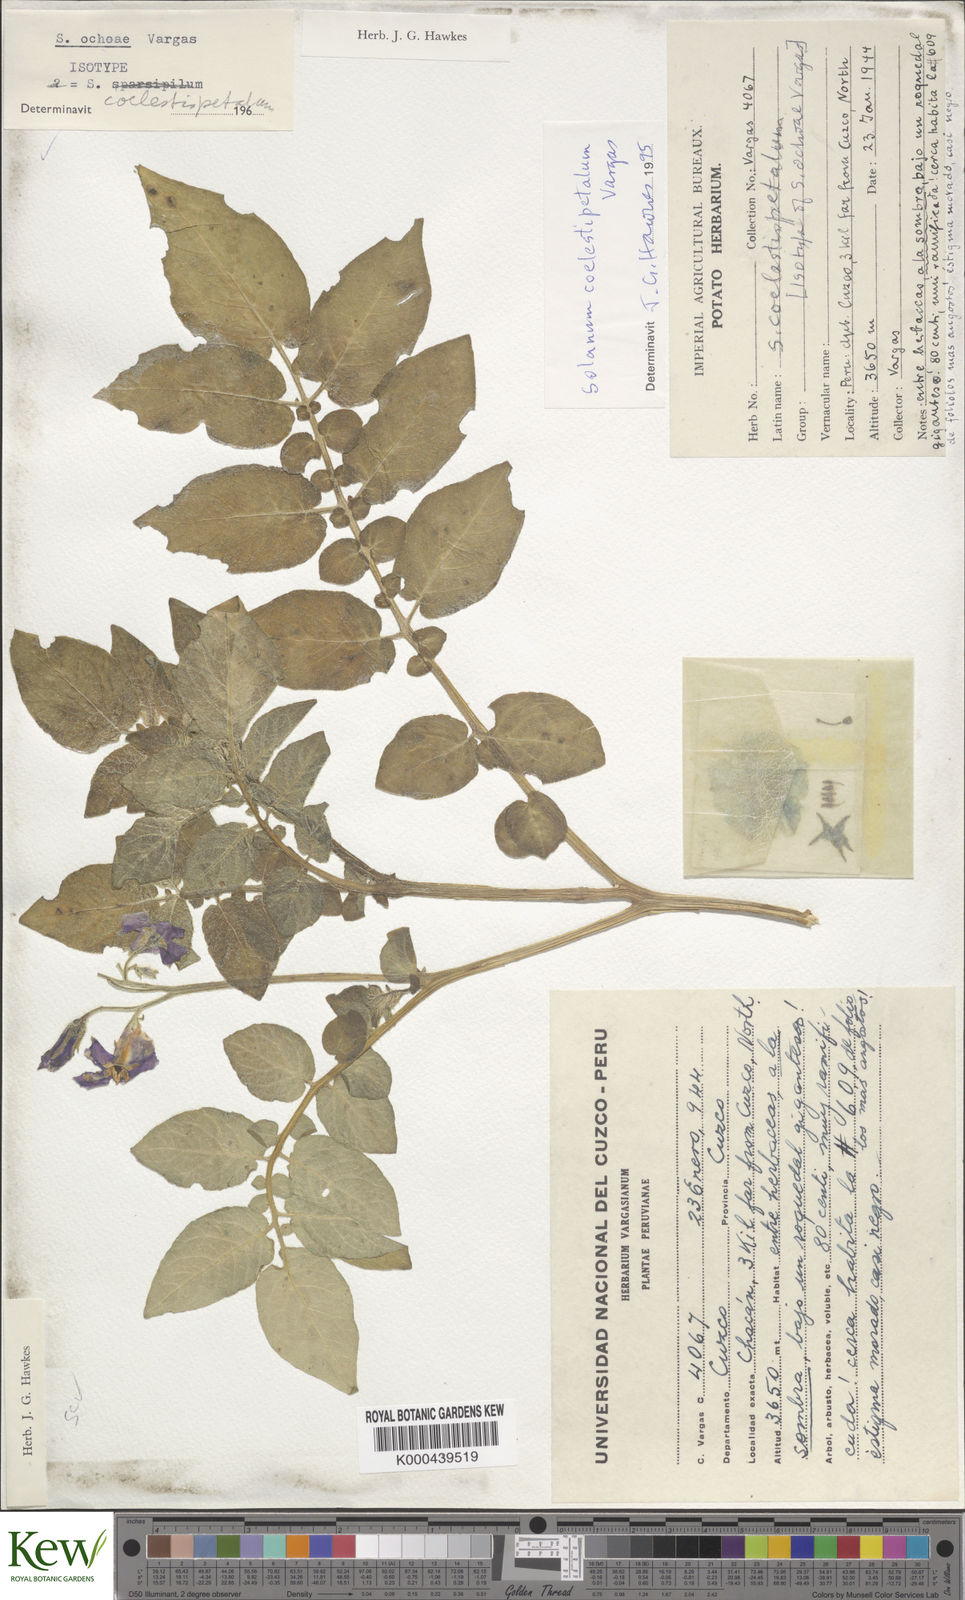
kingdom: Plantae
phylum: Tracheophyta
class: Magnoliopsida
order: Solanales
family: Solanaceae
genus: Solanum
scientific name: Solanum candolleanum
